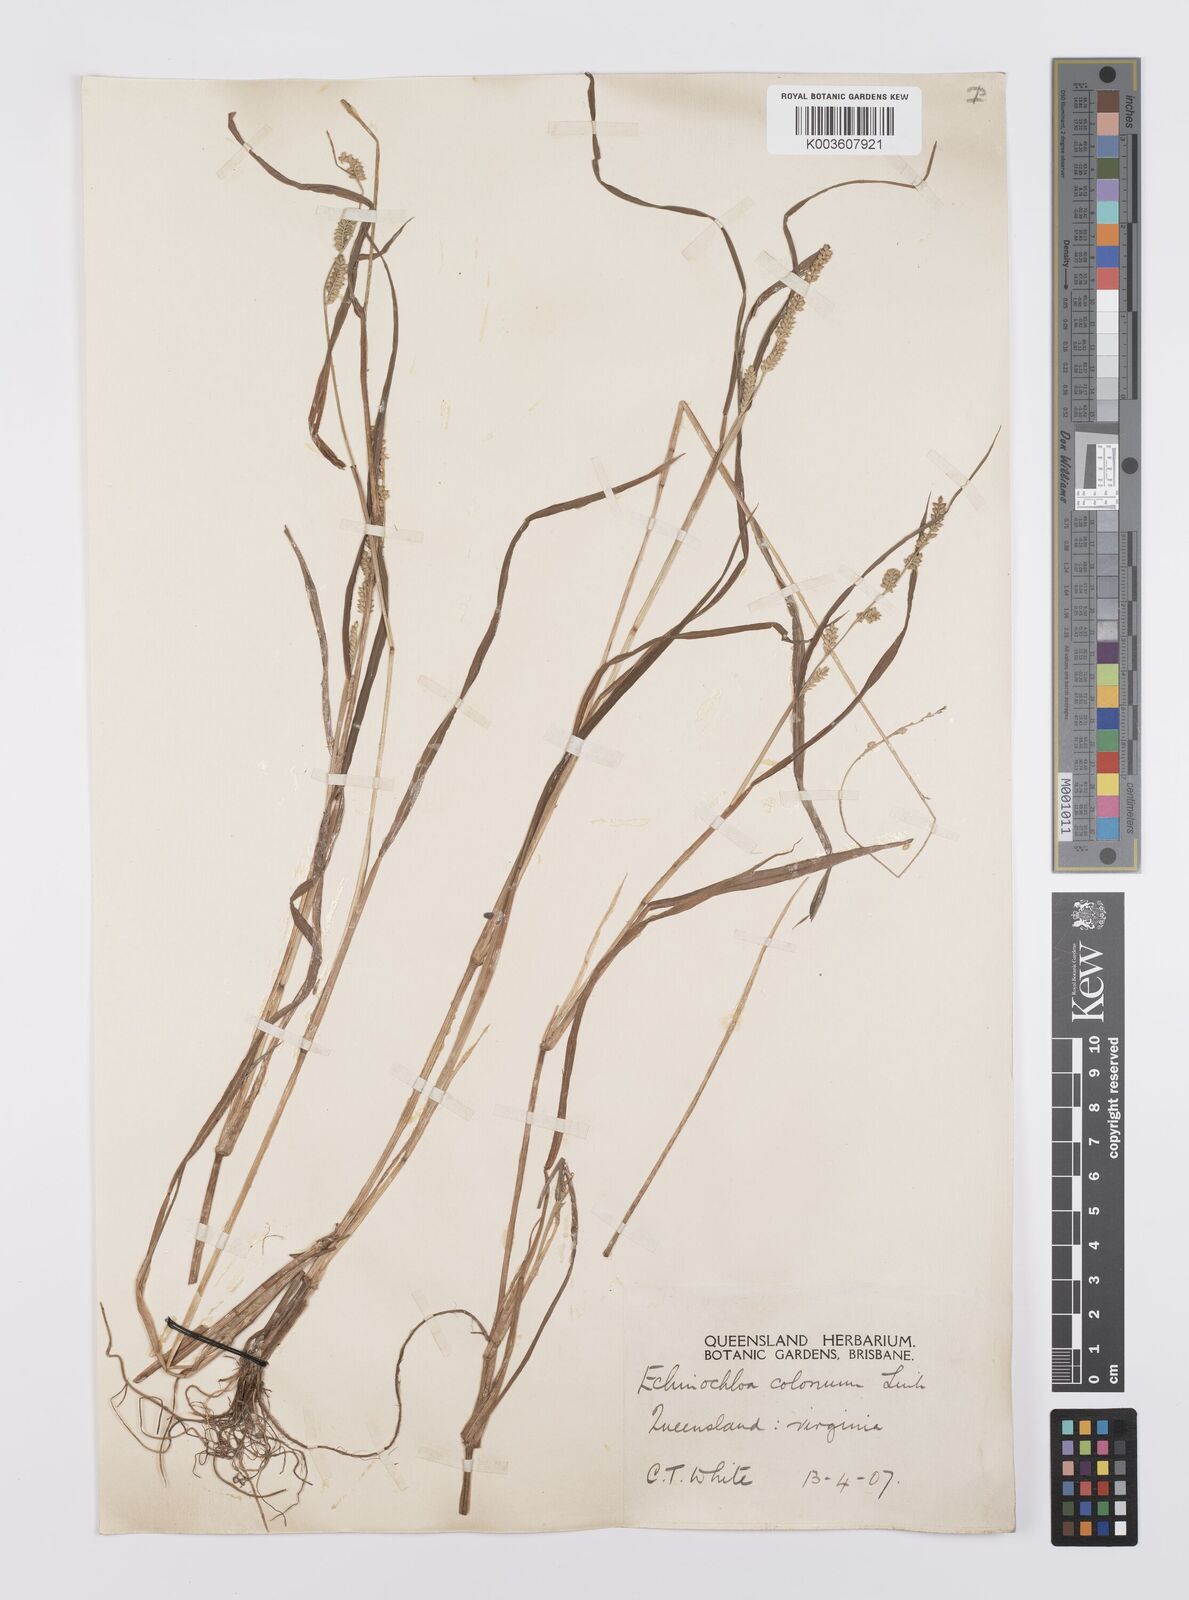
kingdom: Plantae
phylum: Tracheophyta
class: Liliopsida
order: Poales
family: Poaceae
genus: Echinochloa
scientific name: Echinochloa colonum
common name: Jungle rice
